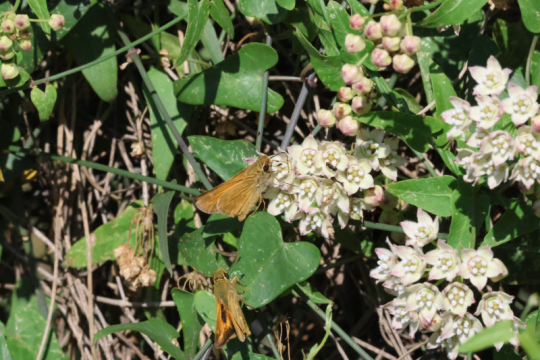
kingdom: Animalia
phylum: Arthropoda
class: Insecta
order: Lepidoptera
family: Hesperiidae
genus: Atalopedes
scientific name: Atalopedes campestris
